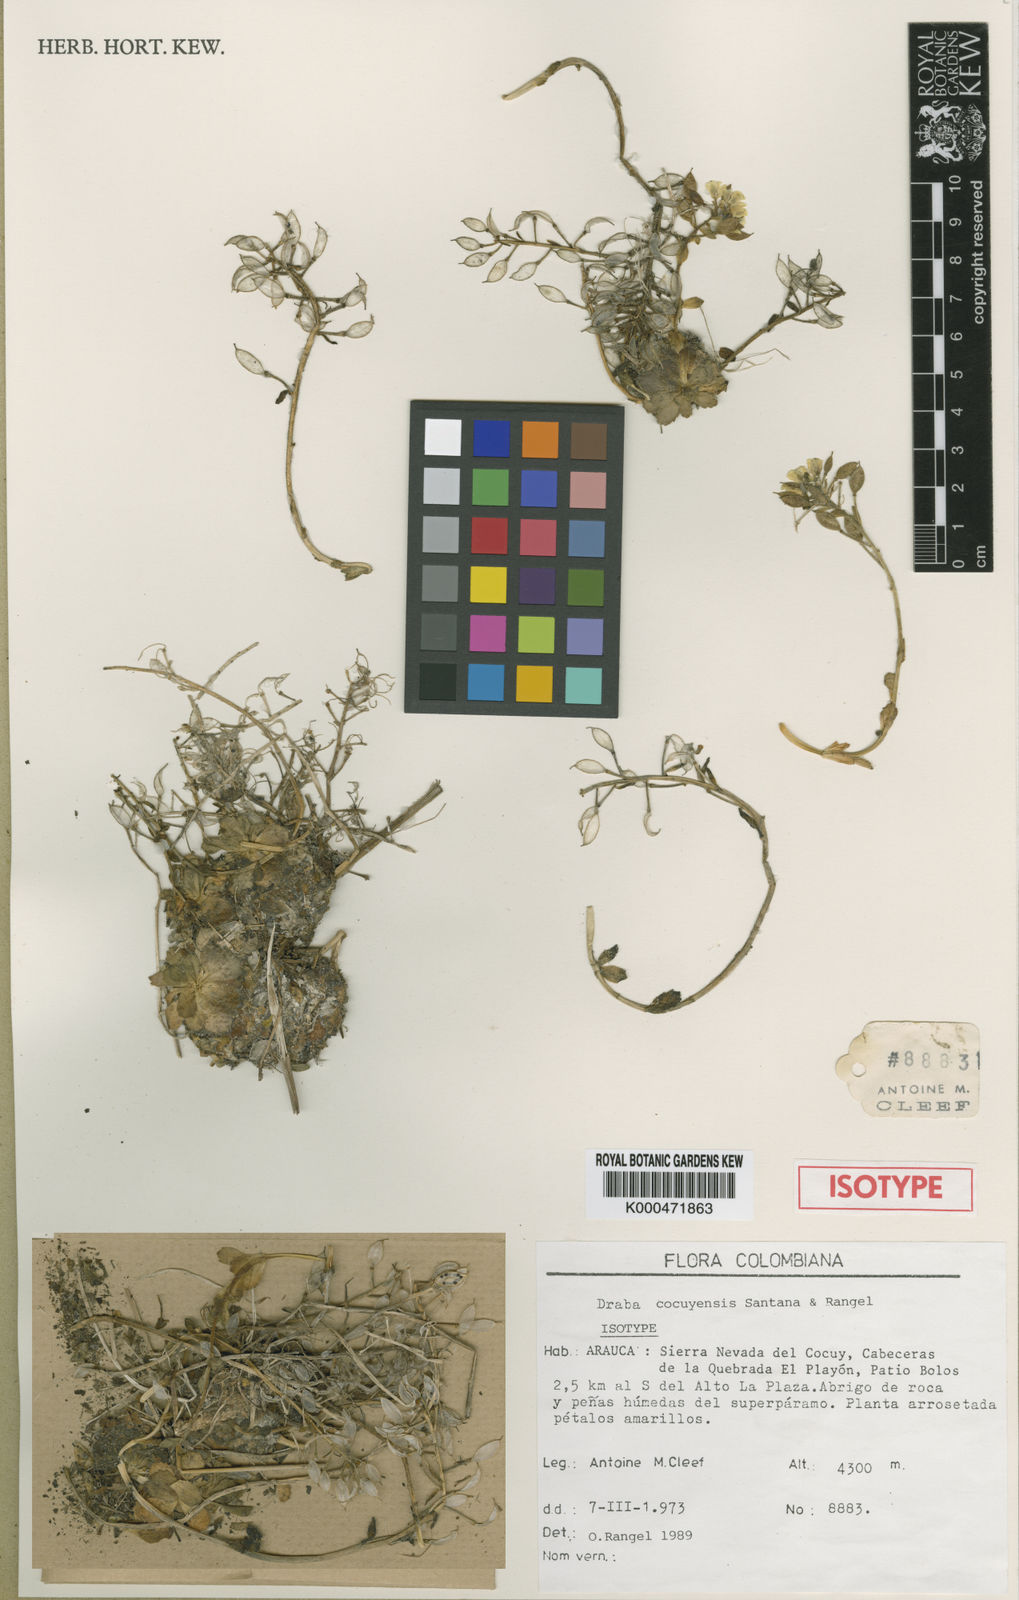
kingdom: Plantae
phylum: Tracheophyta
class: Magnoliopsida
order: Brassicales
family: Brassicaceae
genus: Draba
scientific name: Draba ritacuvana
